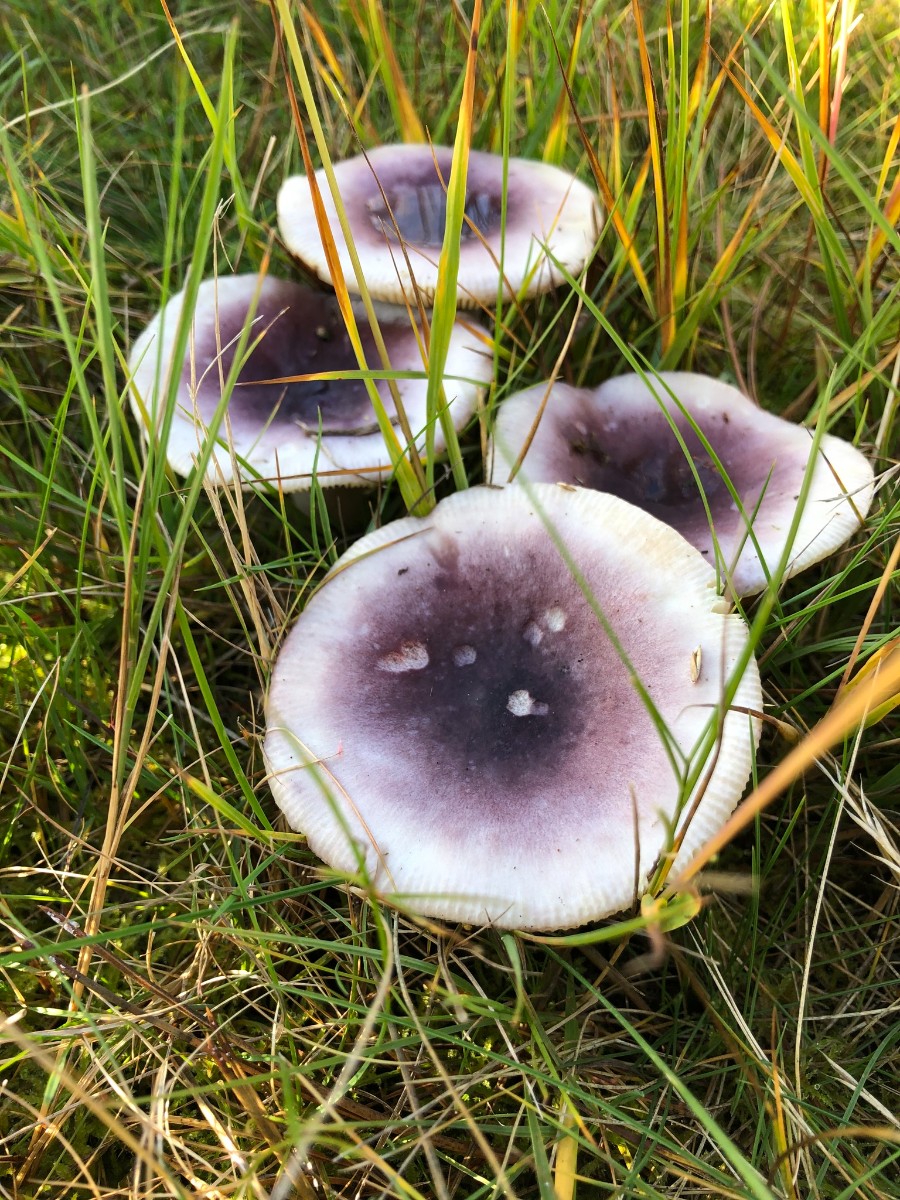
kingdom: Fungi
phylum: Basidiomycota
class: Agaricomycetes
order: Russulales
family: Russulaceae
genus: Russula
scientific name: Russula
